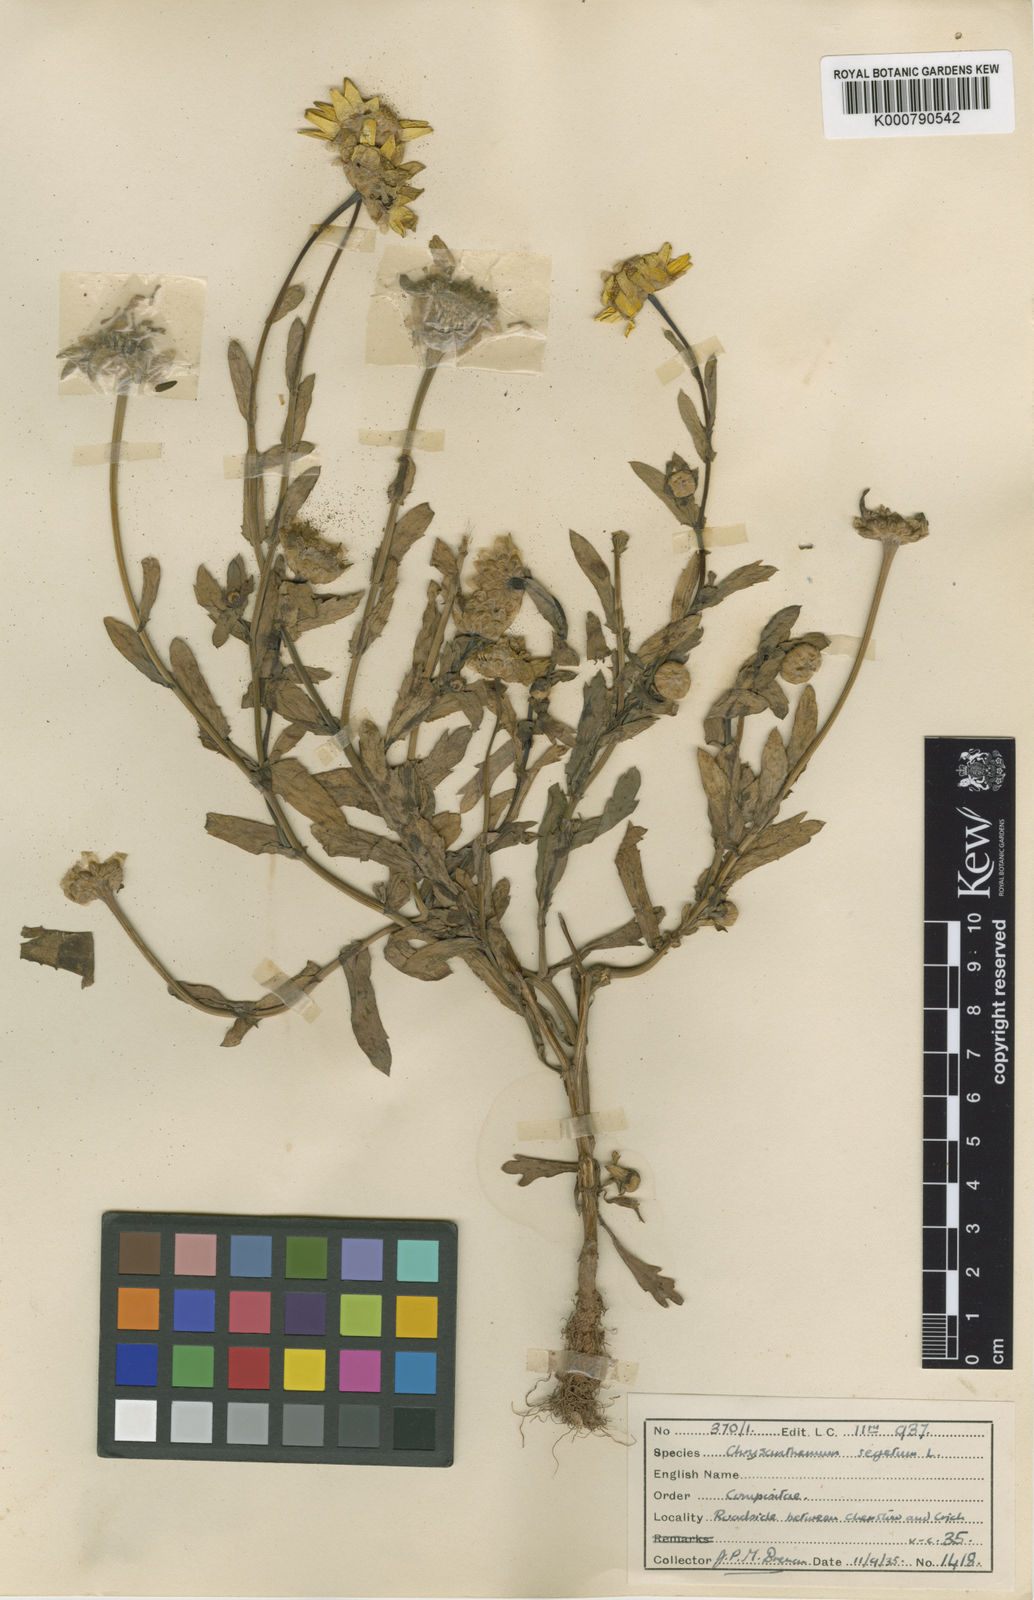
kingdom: Plantae
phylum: Tracheophyta
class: Magnoliopsida
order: Asterales
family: Asteraceae
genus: Glebionis
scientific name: Glebionis
